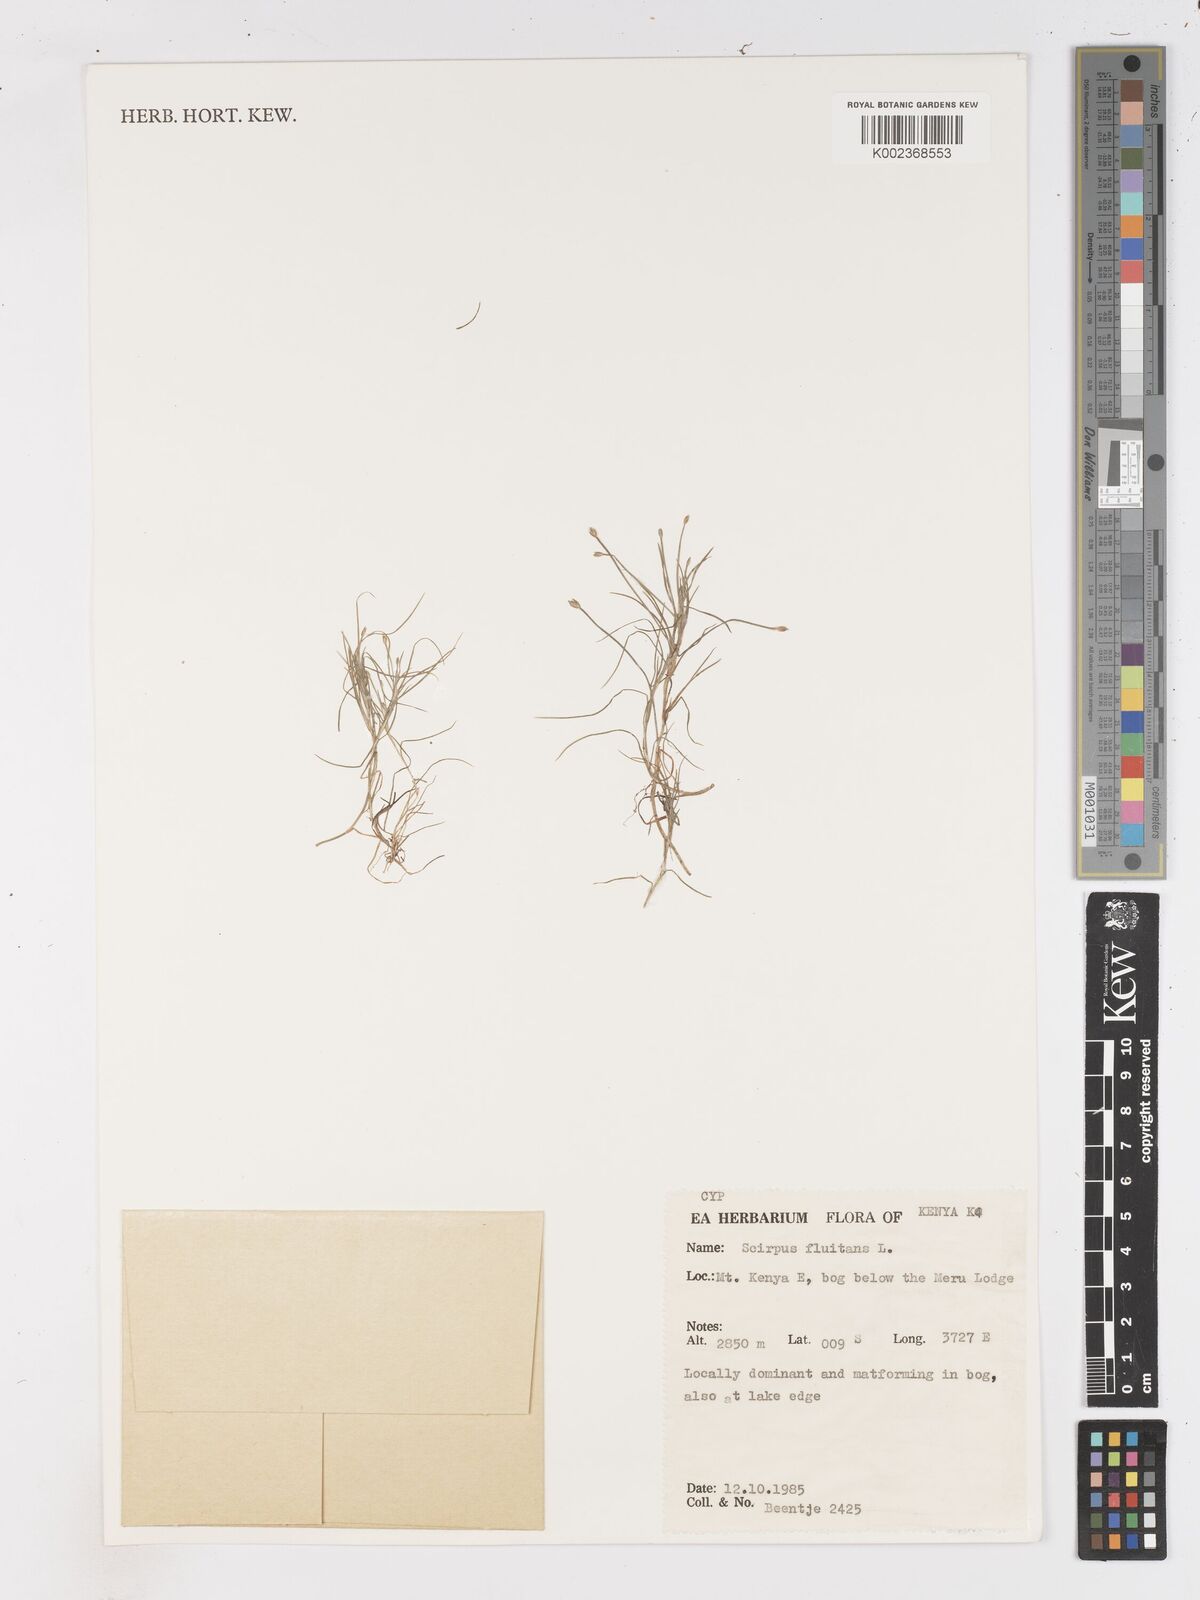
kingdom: Plantae
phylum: Tracheophyta
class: Liliopsida
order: Poales
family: Cyperaceae
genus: Isolepis
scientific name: Isolepis fluitans
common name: Floating club-rush
